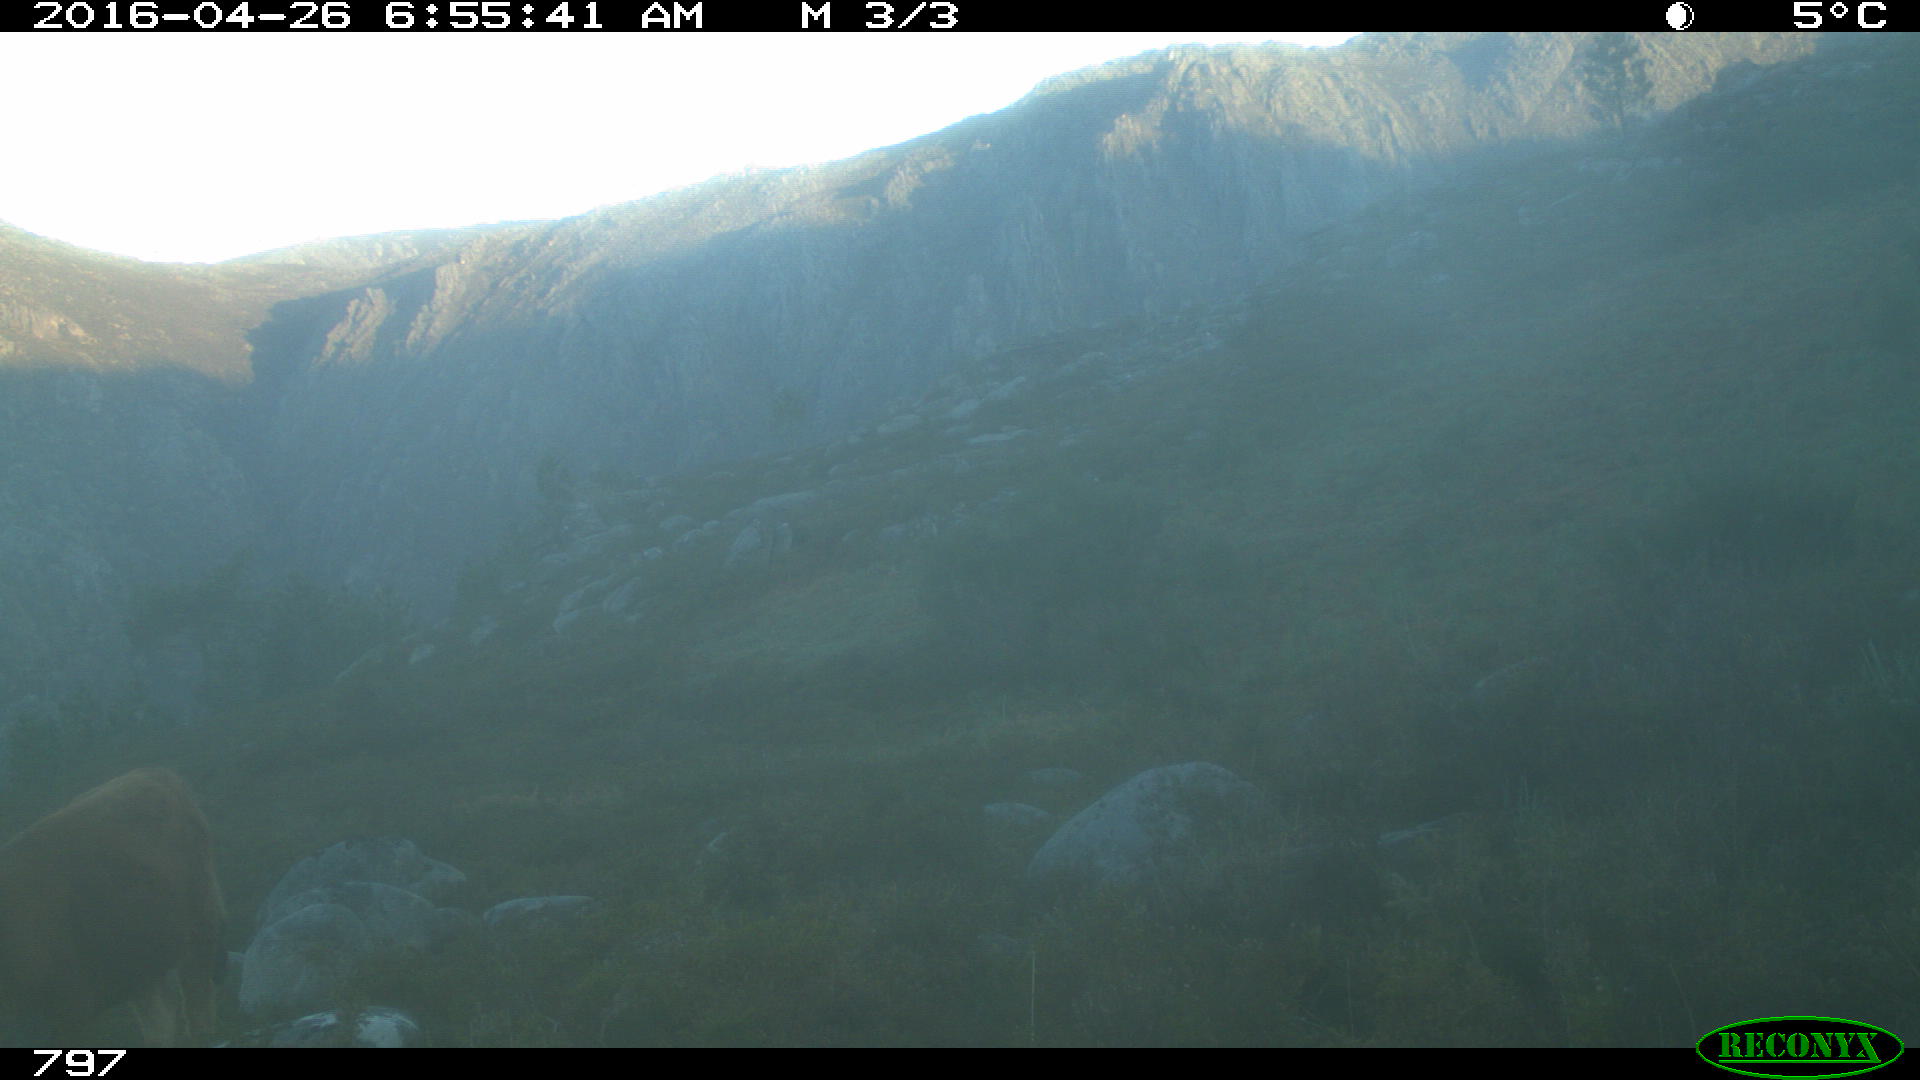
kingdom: Animalia
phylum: Chordata
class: Mammalia
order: Artiodactyla
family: Bovidae
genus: Bos
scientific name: Bos taurus
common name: Domesticated cattle
